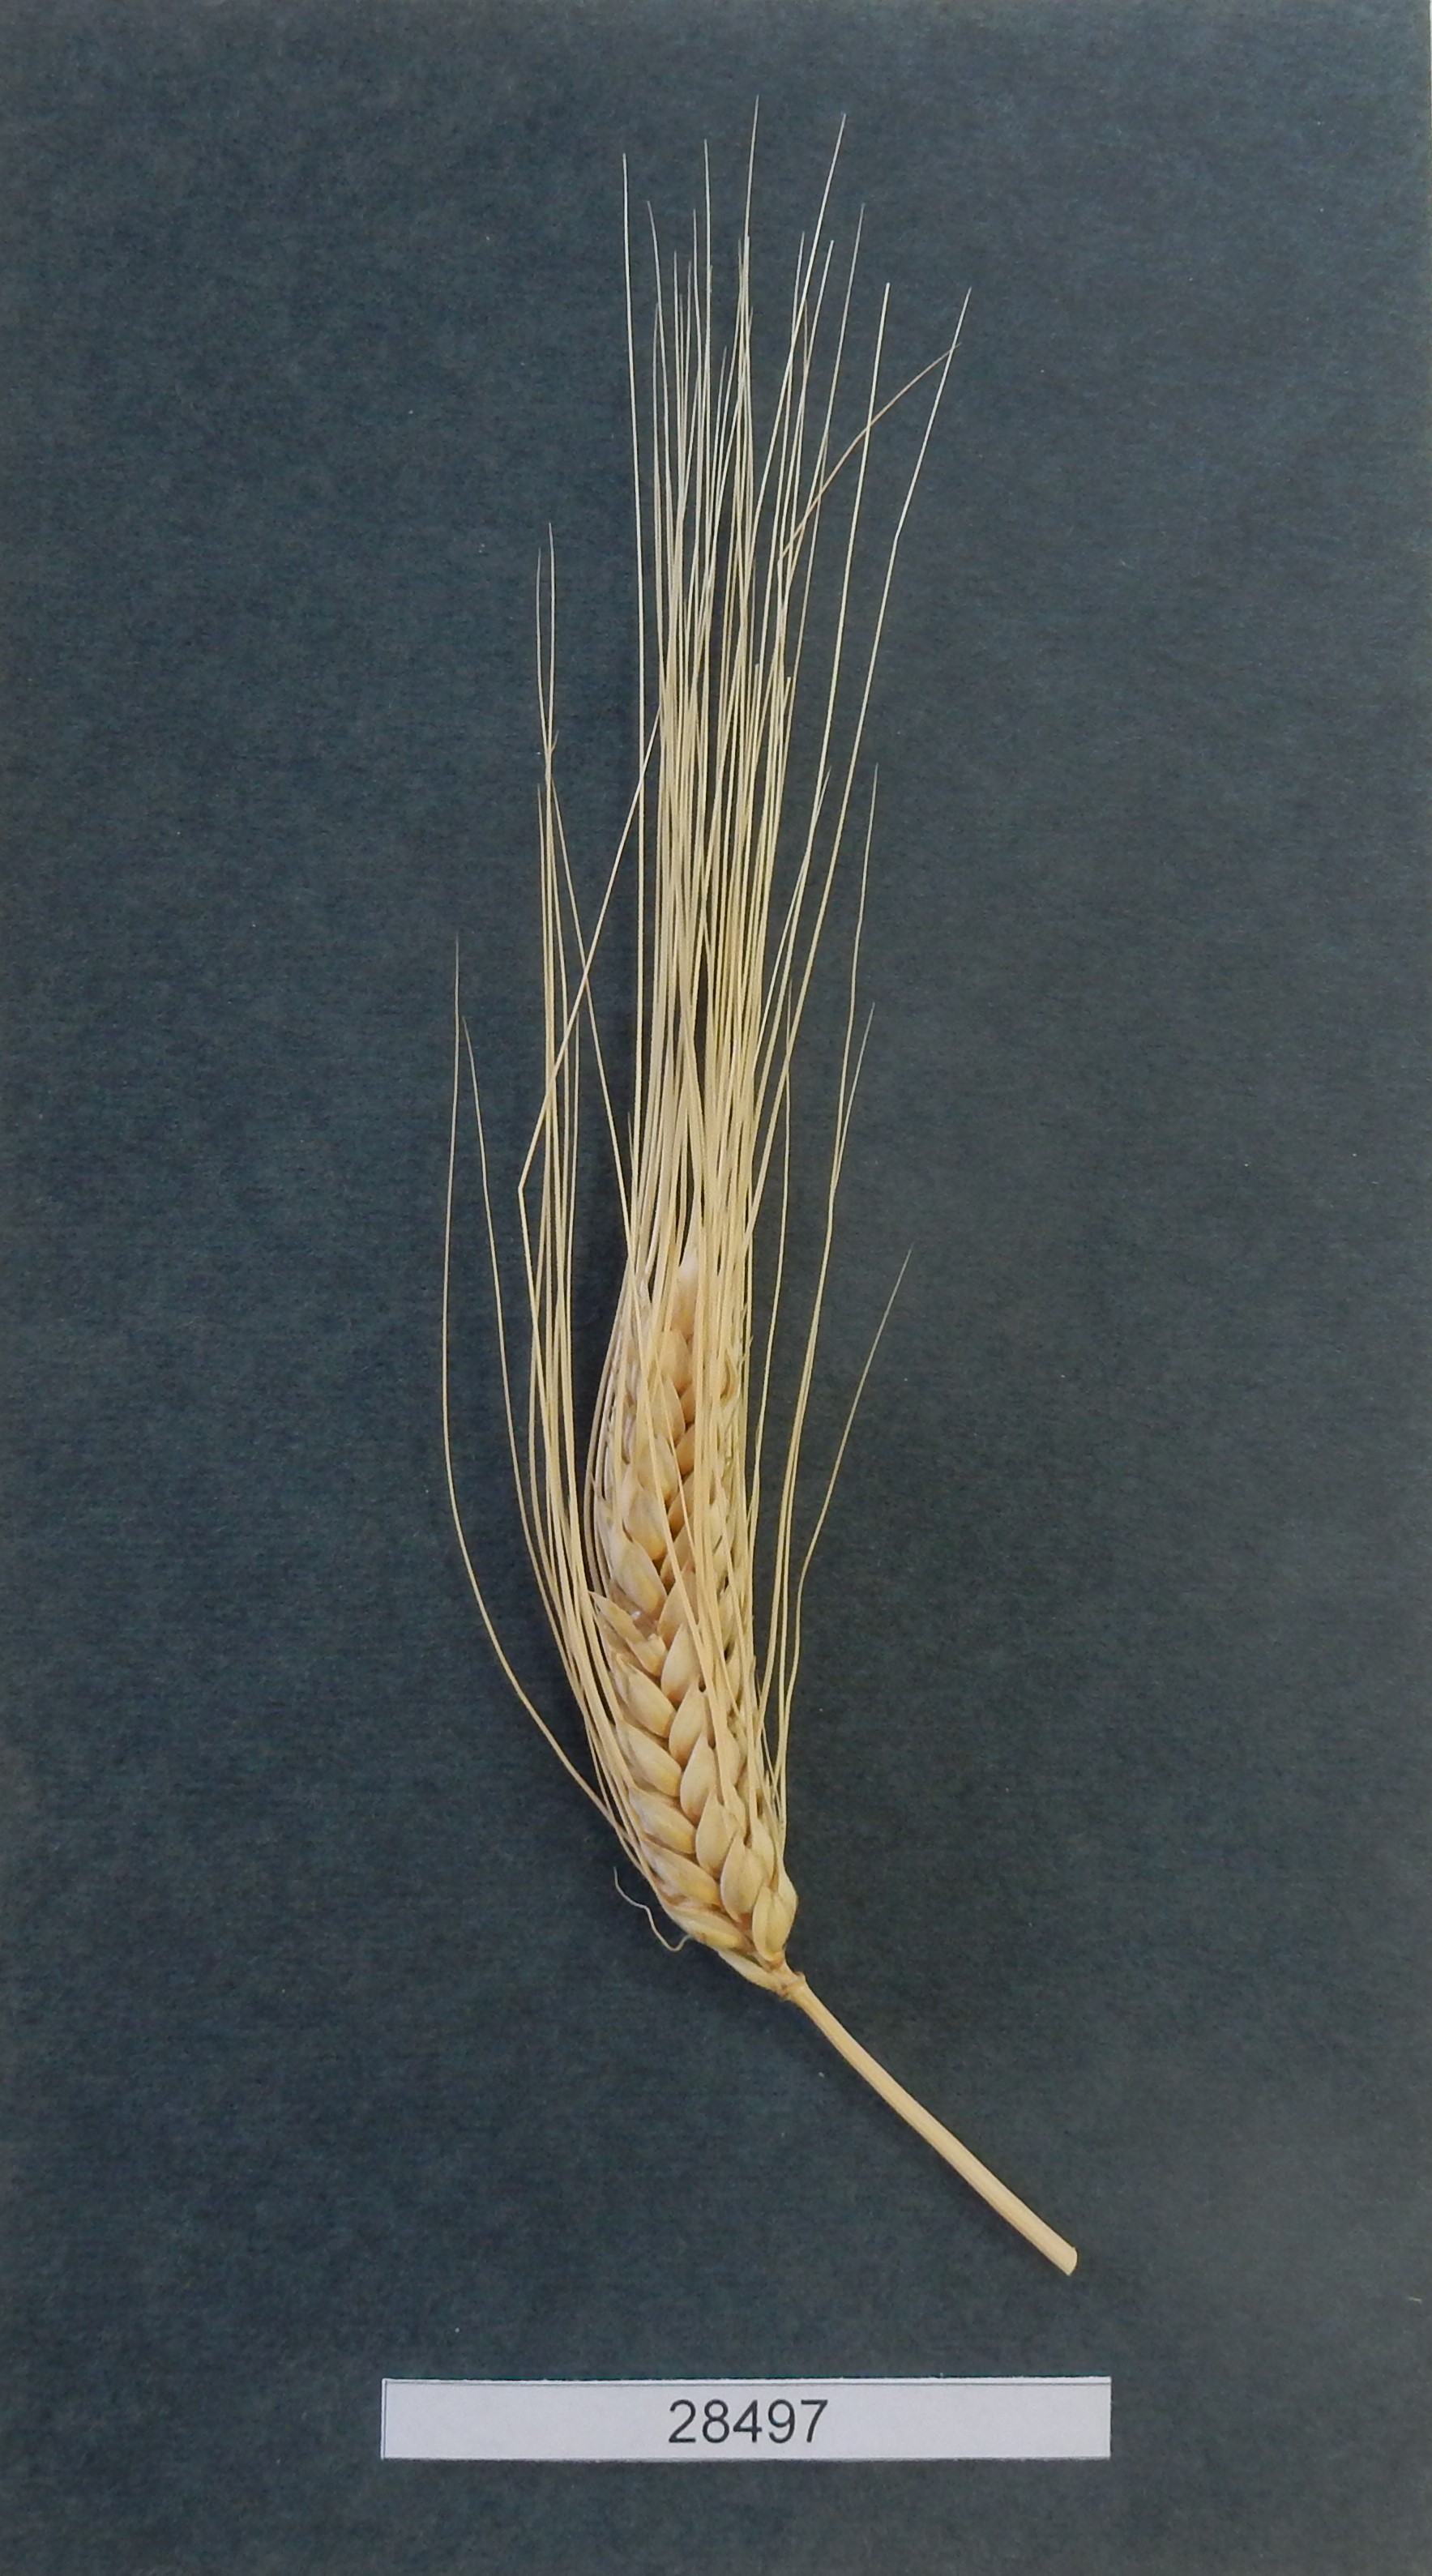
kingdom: Plantae
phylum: Tracheophyta
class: Liliopsida
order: Poales
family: Poaceae
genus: Triticum
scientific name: Triticum turgidum
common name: Wheat
